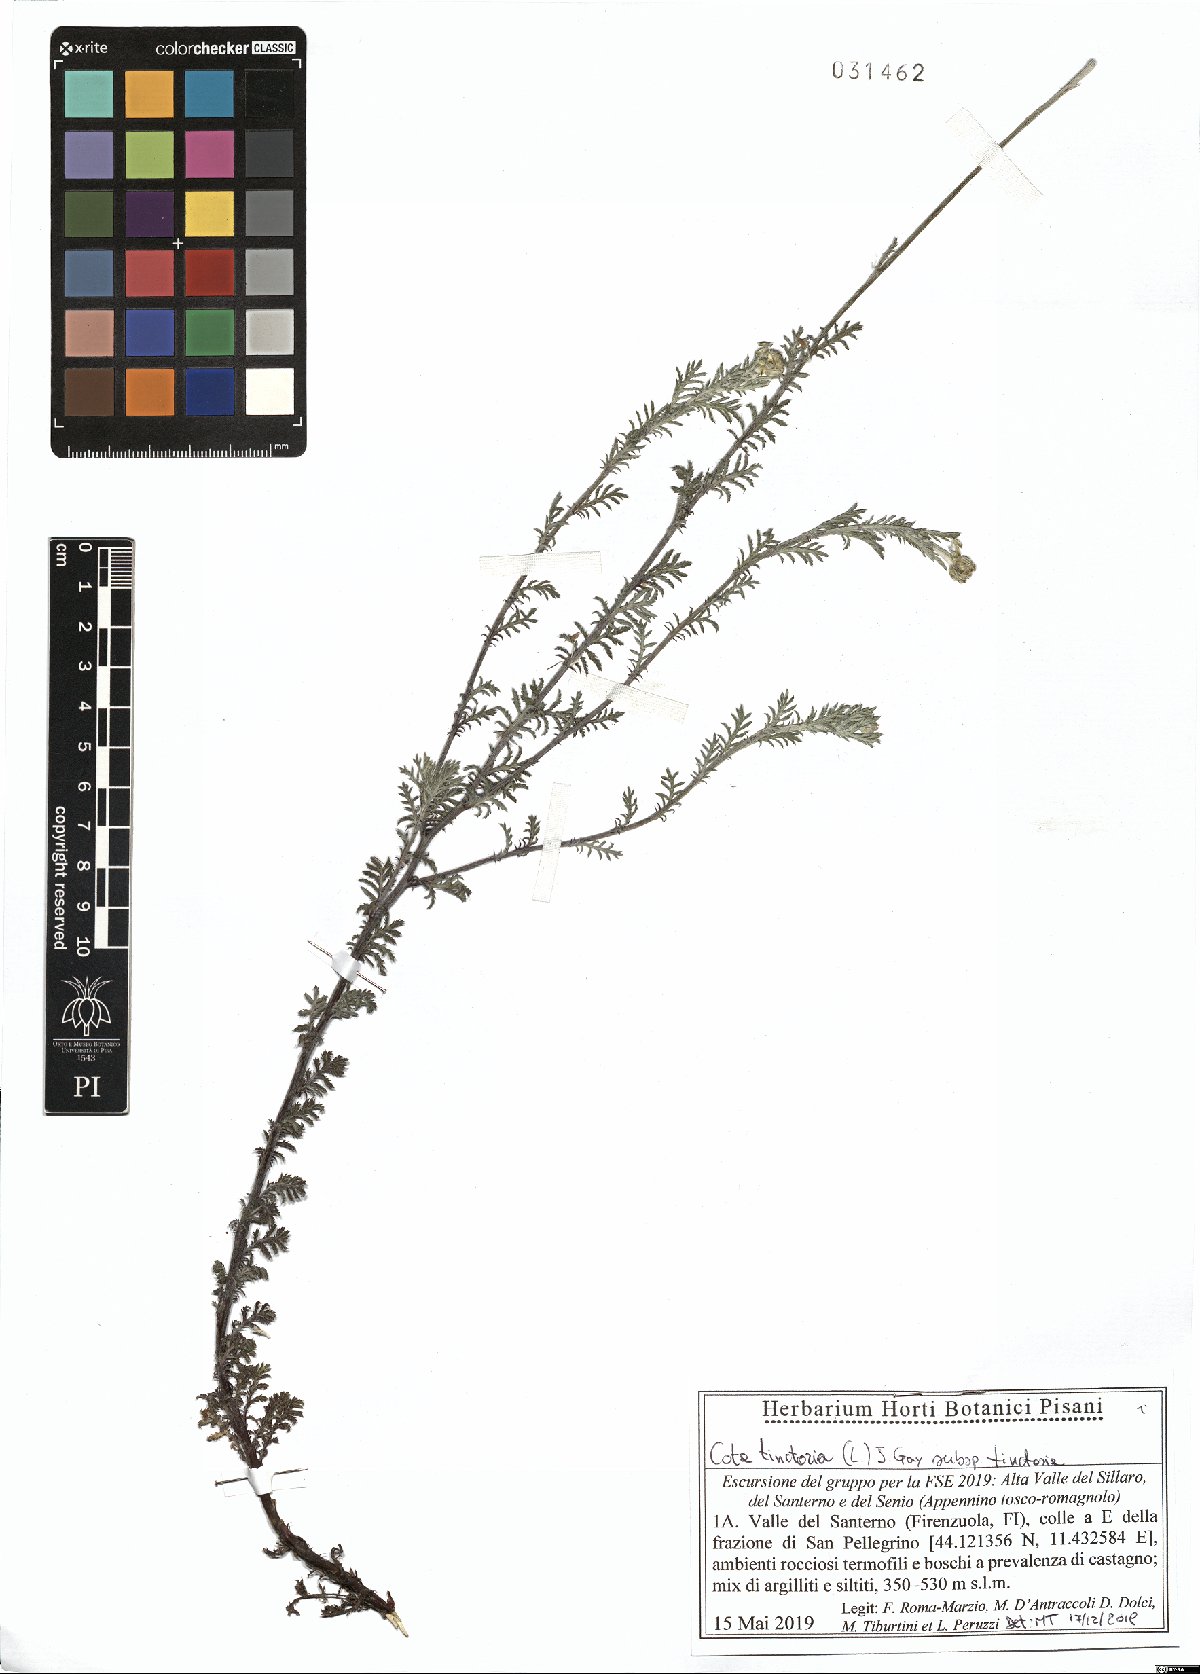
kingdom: Plantae
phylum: Tracheophyta
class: Magnoliopsida
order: Asterales
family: Asteraceae
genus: Cota
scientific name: Cota tinctoria
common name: Golden chamomile
